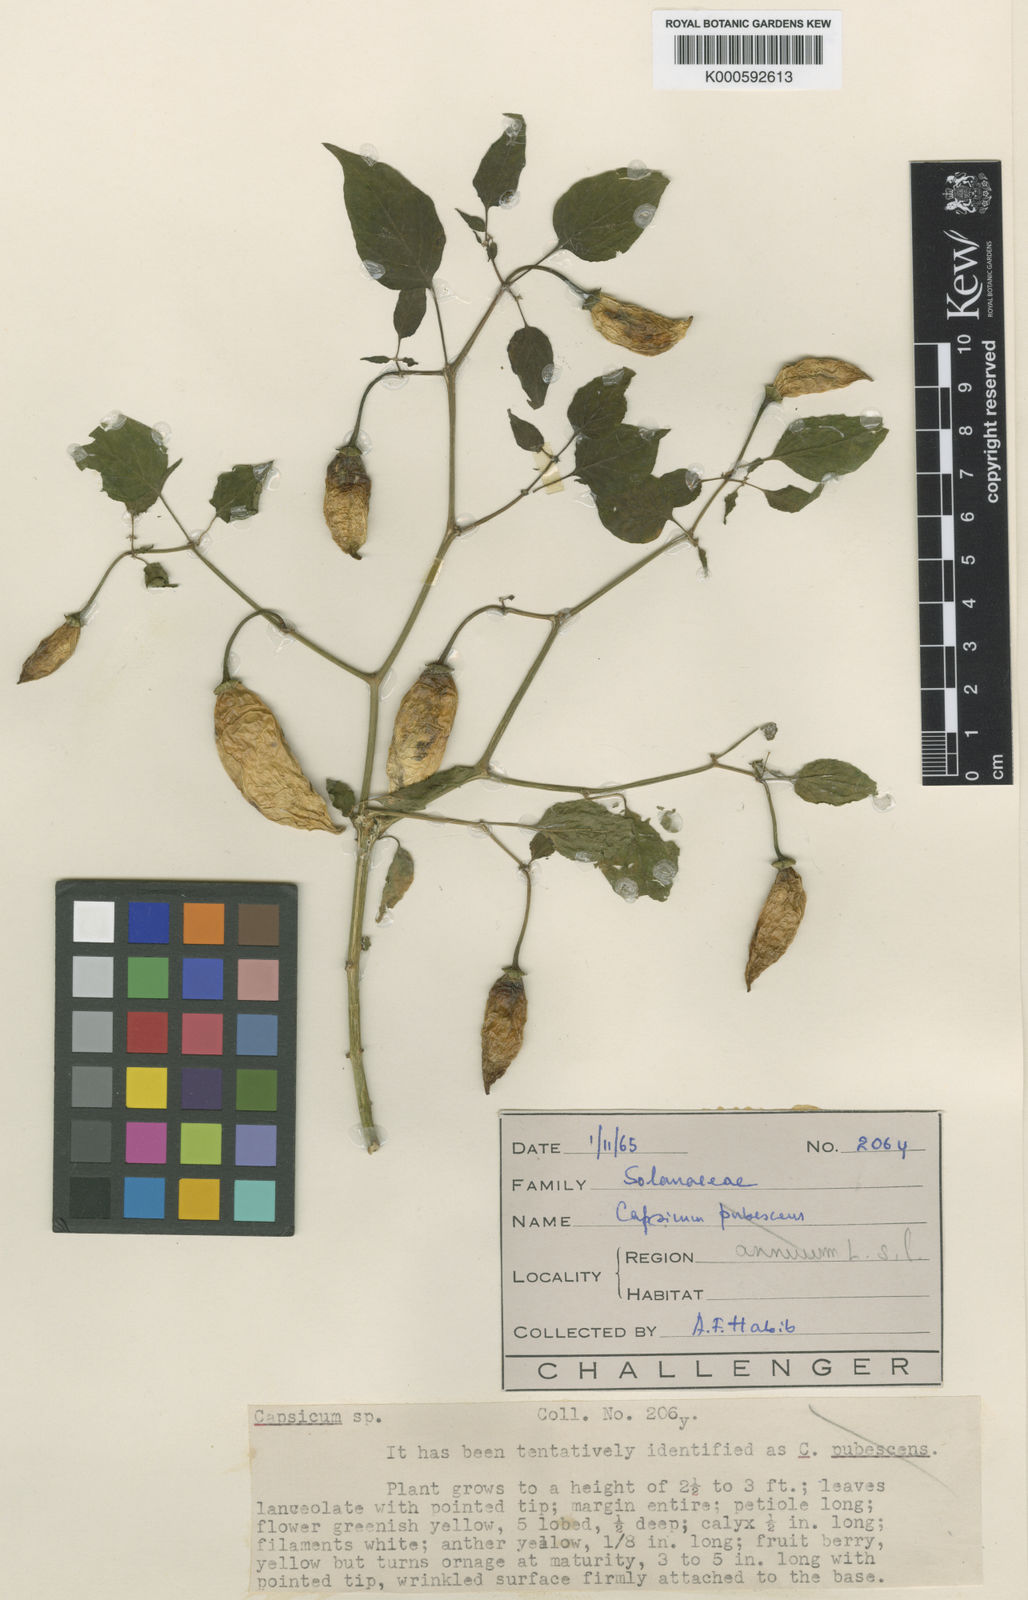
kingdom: Plantae
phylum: Tracheophyta
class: Magnoliopsida
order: Solanales
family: Solanaceae
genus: Capsicum
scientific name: Capsicum annuum
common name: Sweet pepper
